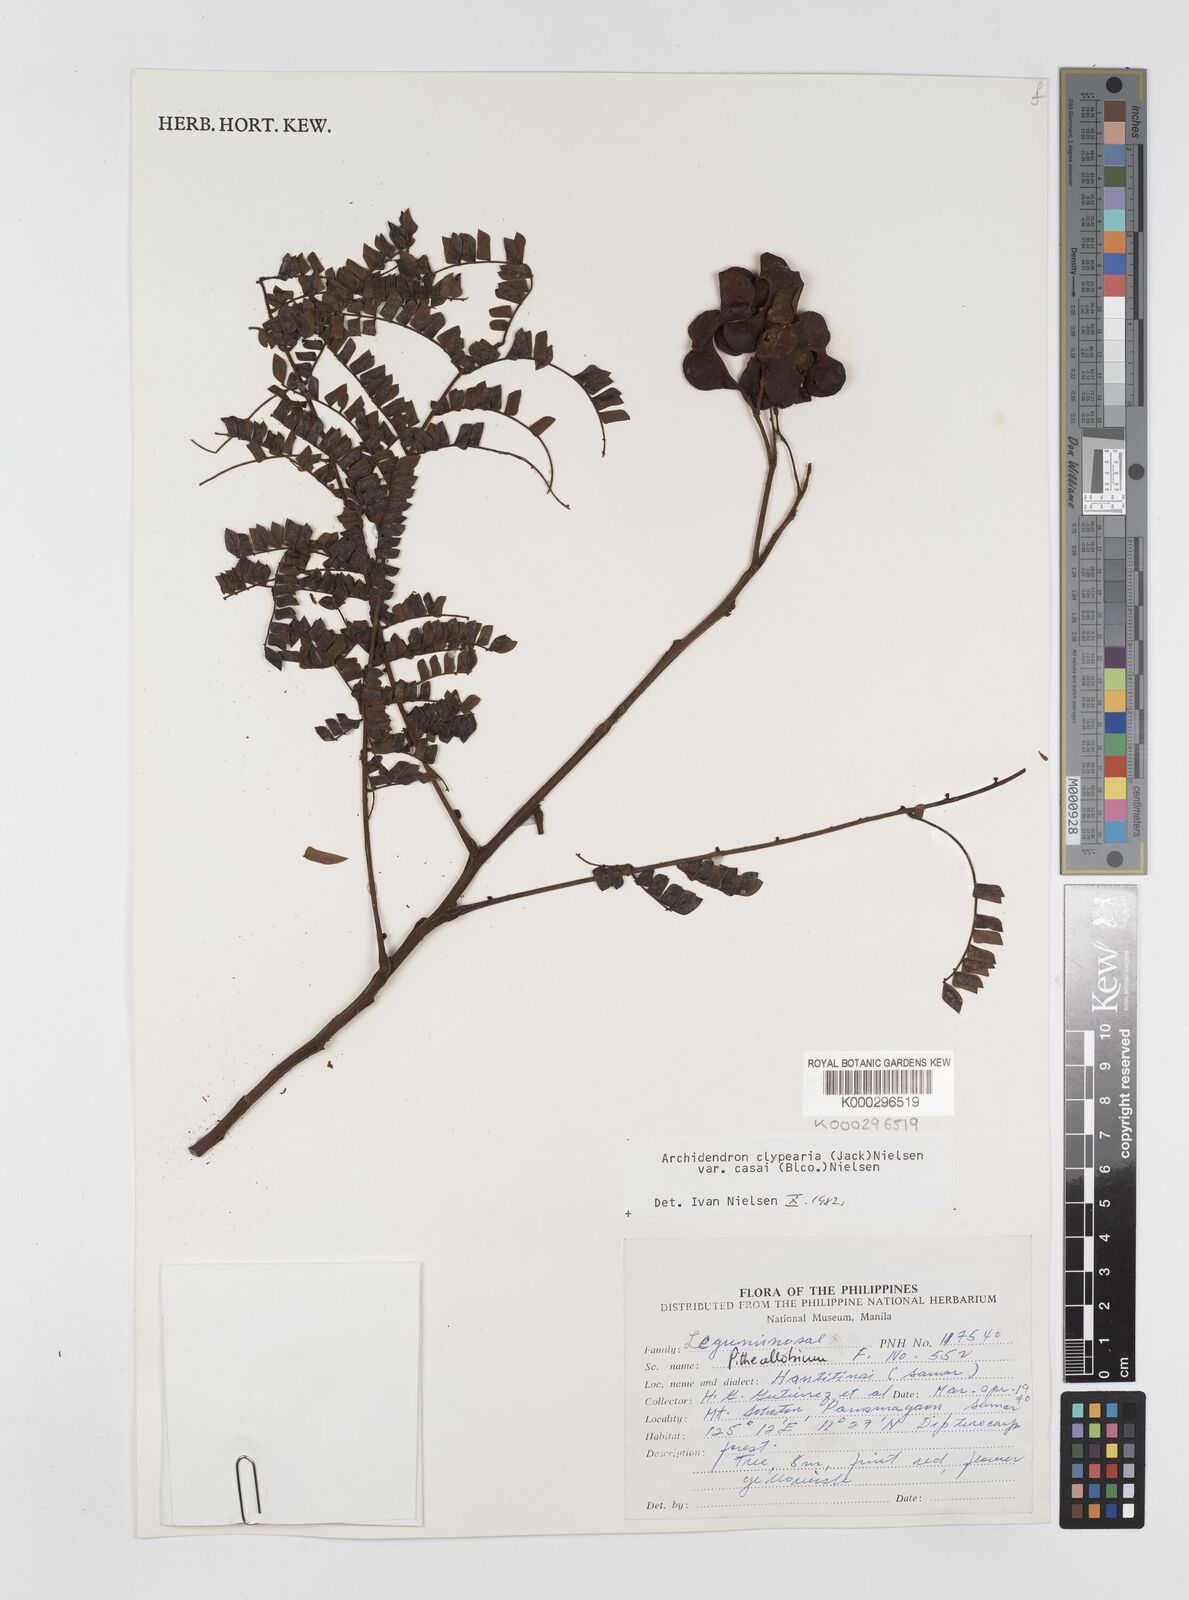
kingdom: Plantae
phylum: Tracheophyta
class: Magnoliopsida
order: Fabales
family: Fabaceae
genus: Archidendron
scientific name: Archidendron clypearia
